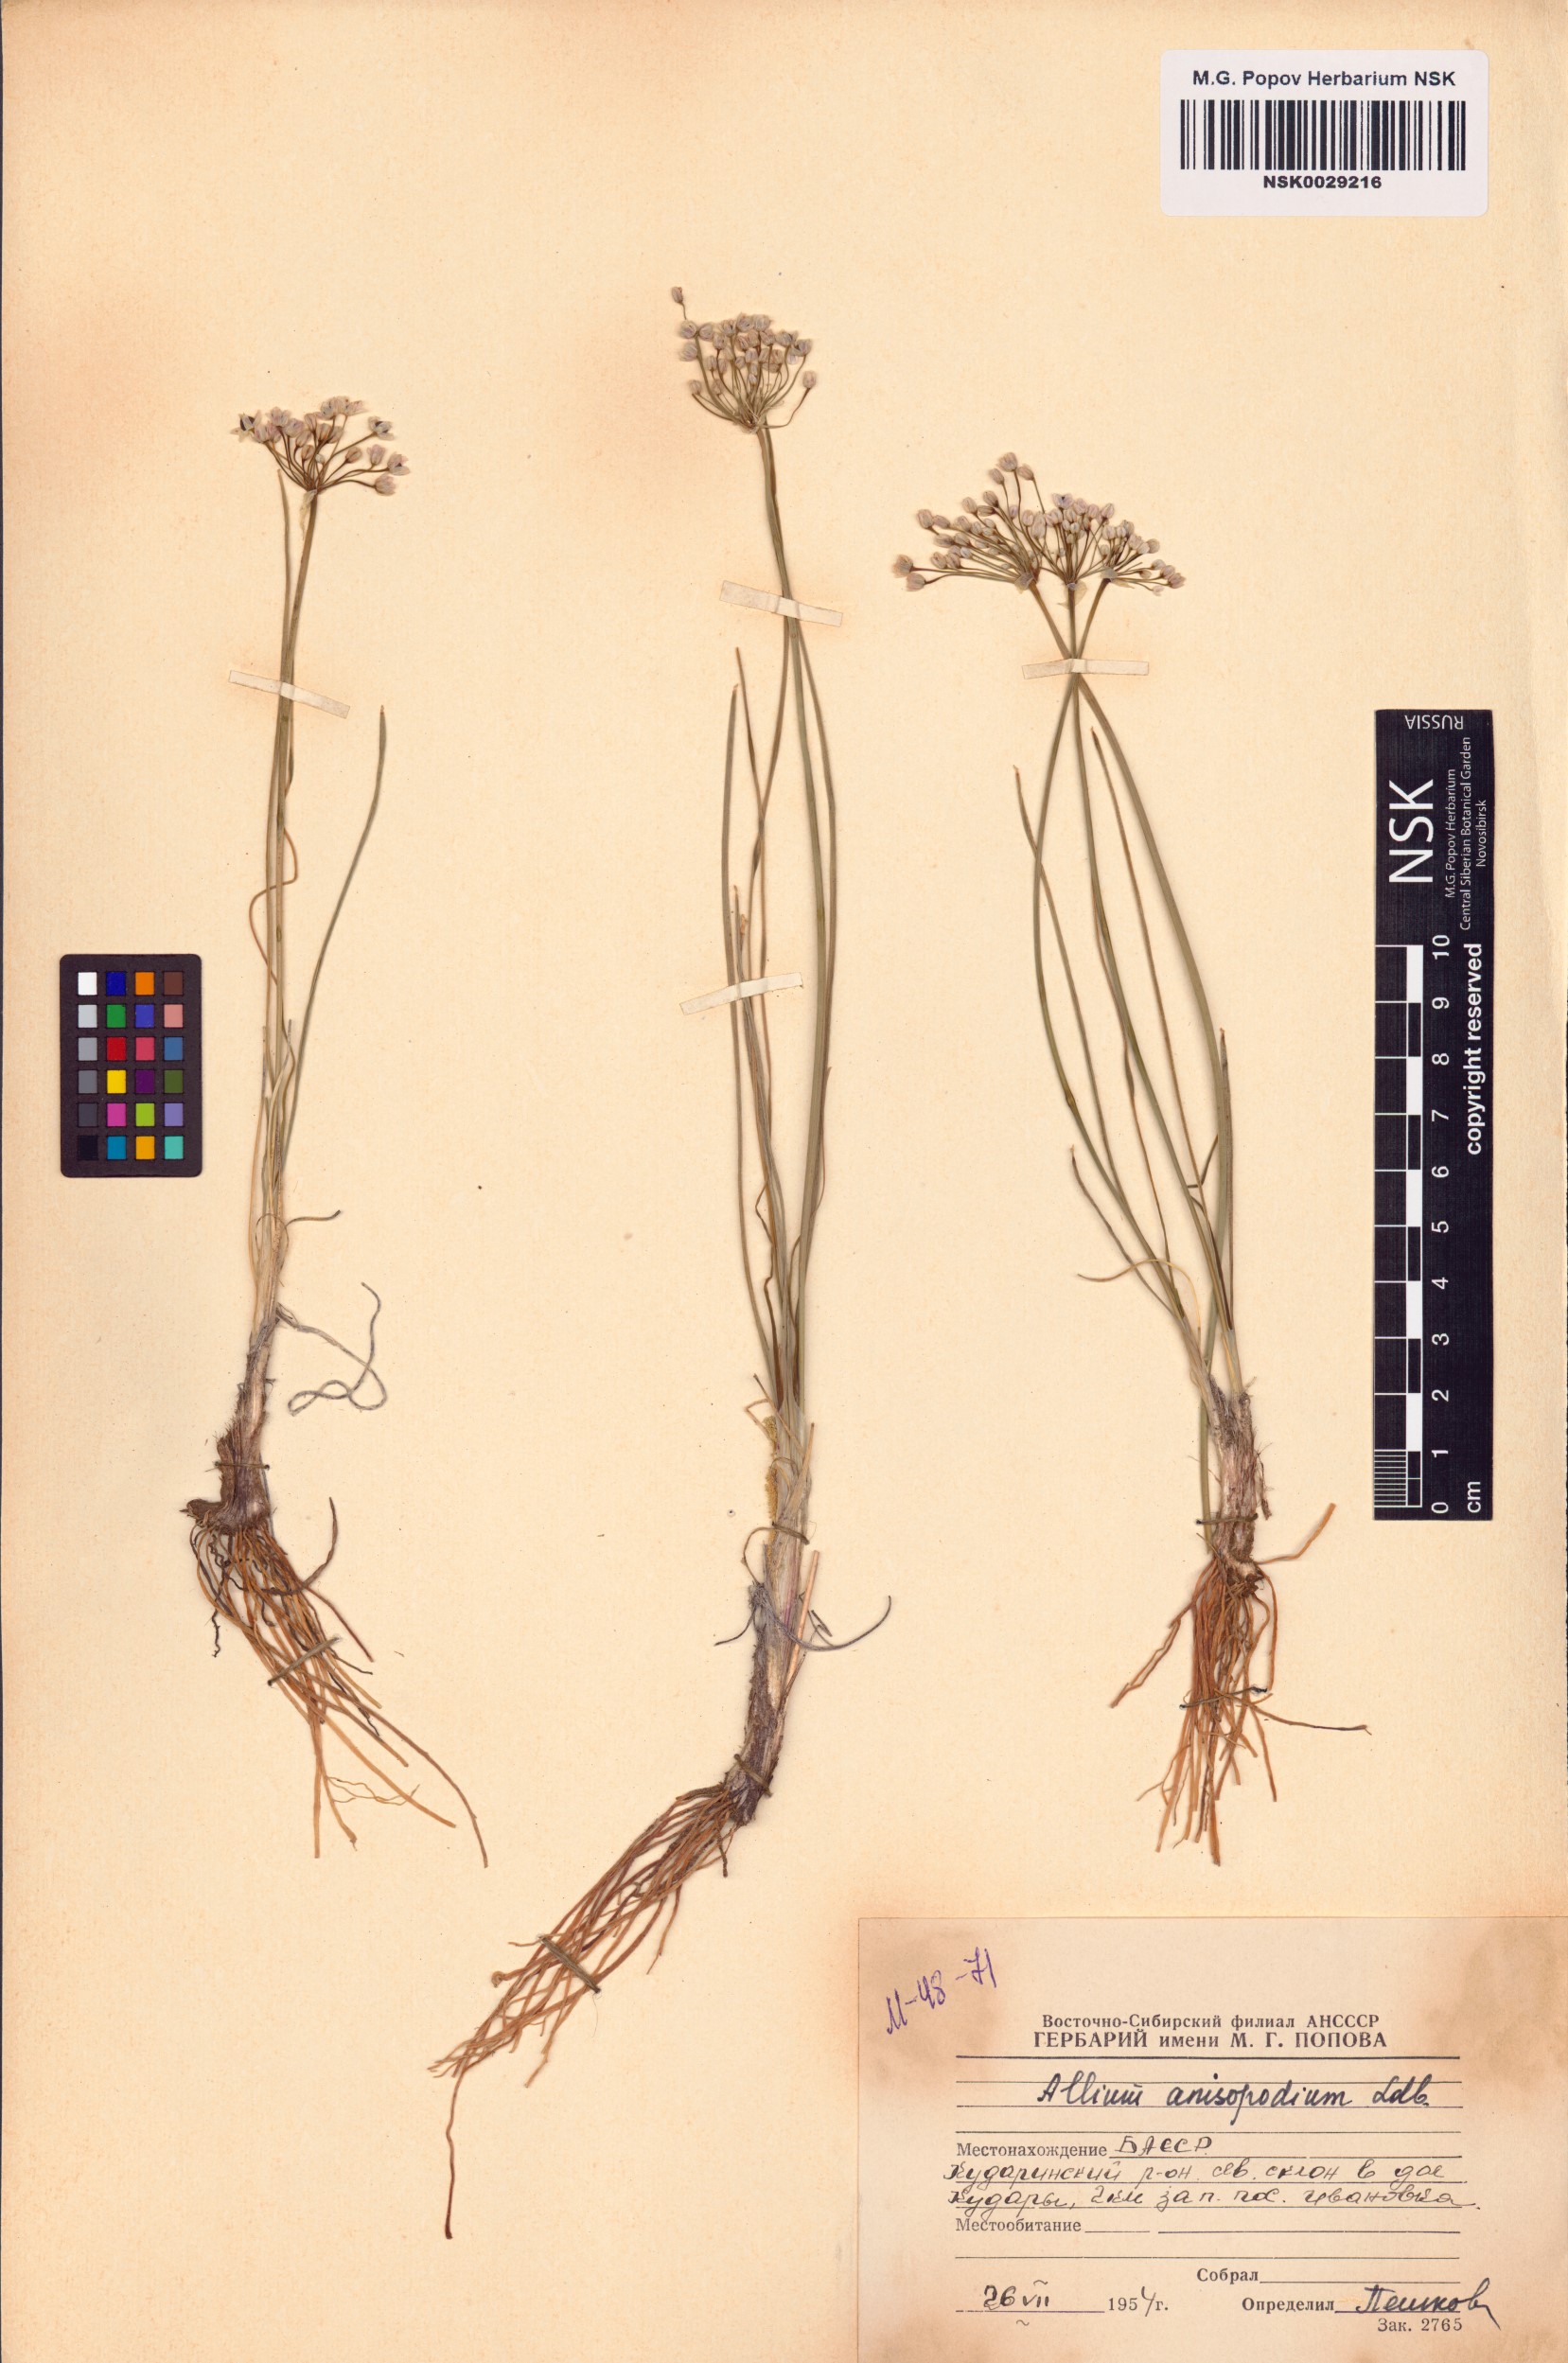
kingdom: Plantae
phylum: Tracheophyta
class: Liliopsida
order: Asparagales
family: Amaryllidaceae
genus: Allium
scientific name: Allium anisopodium
